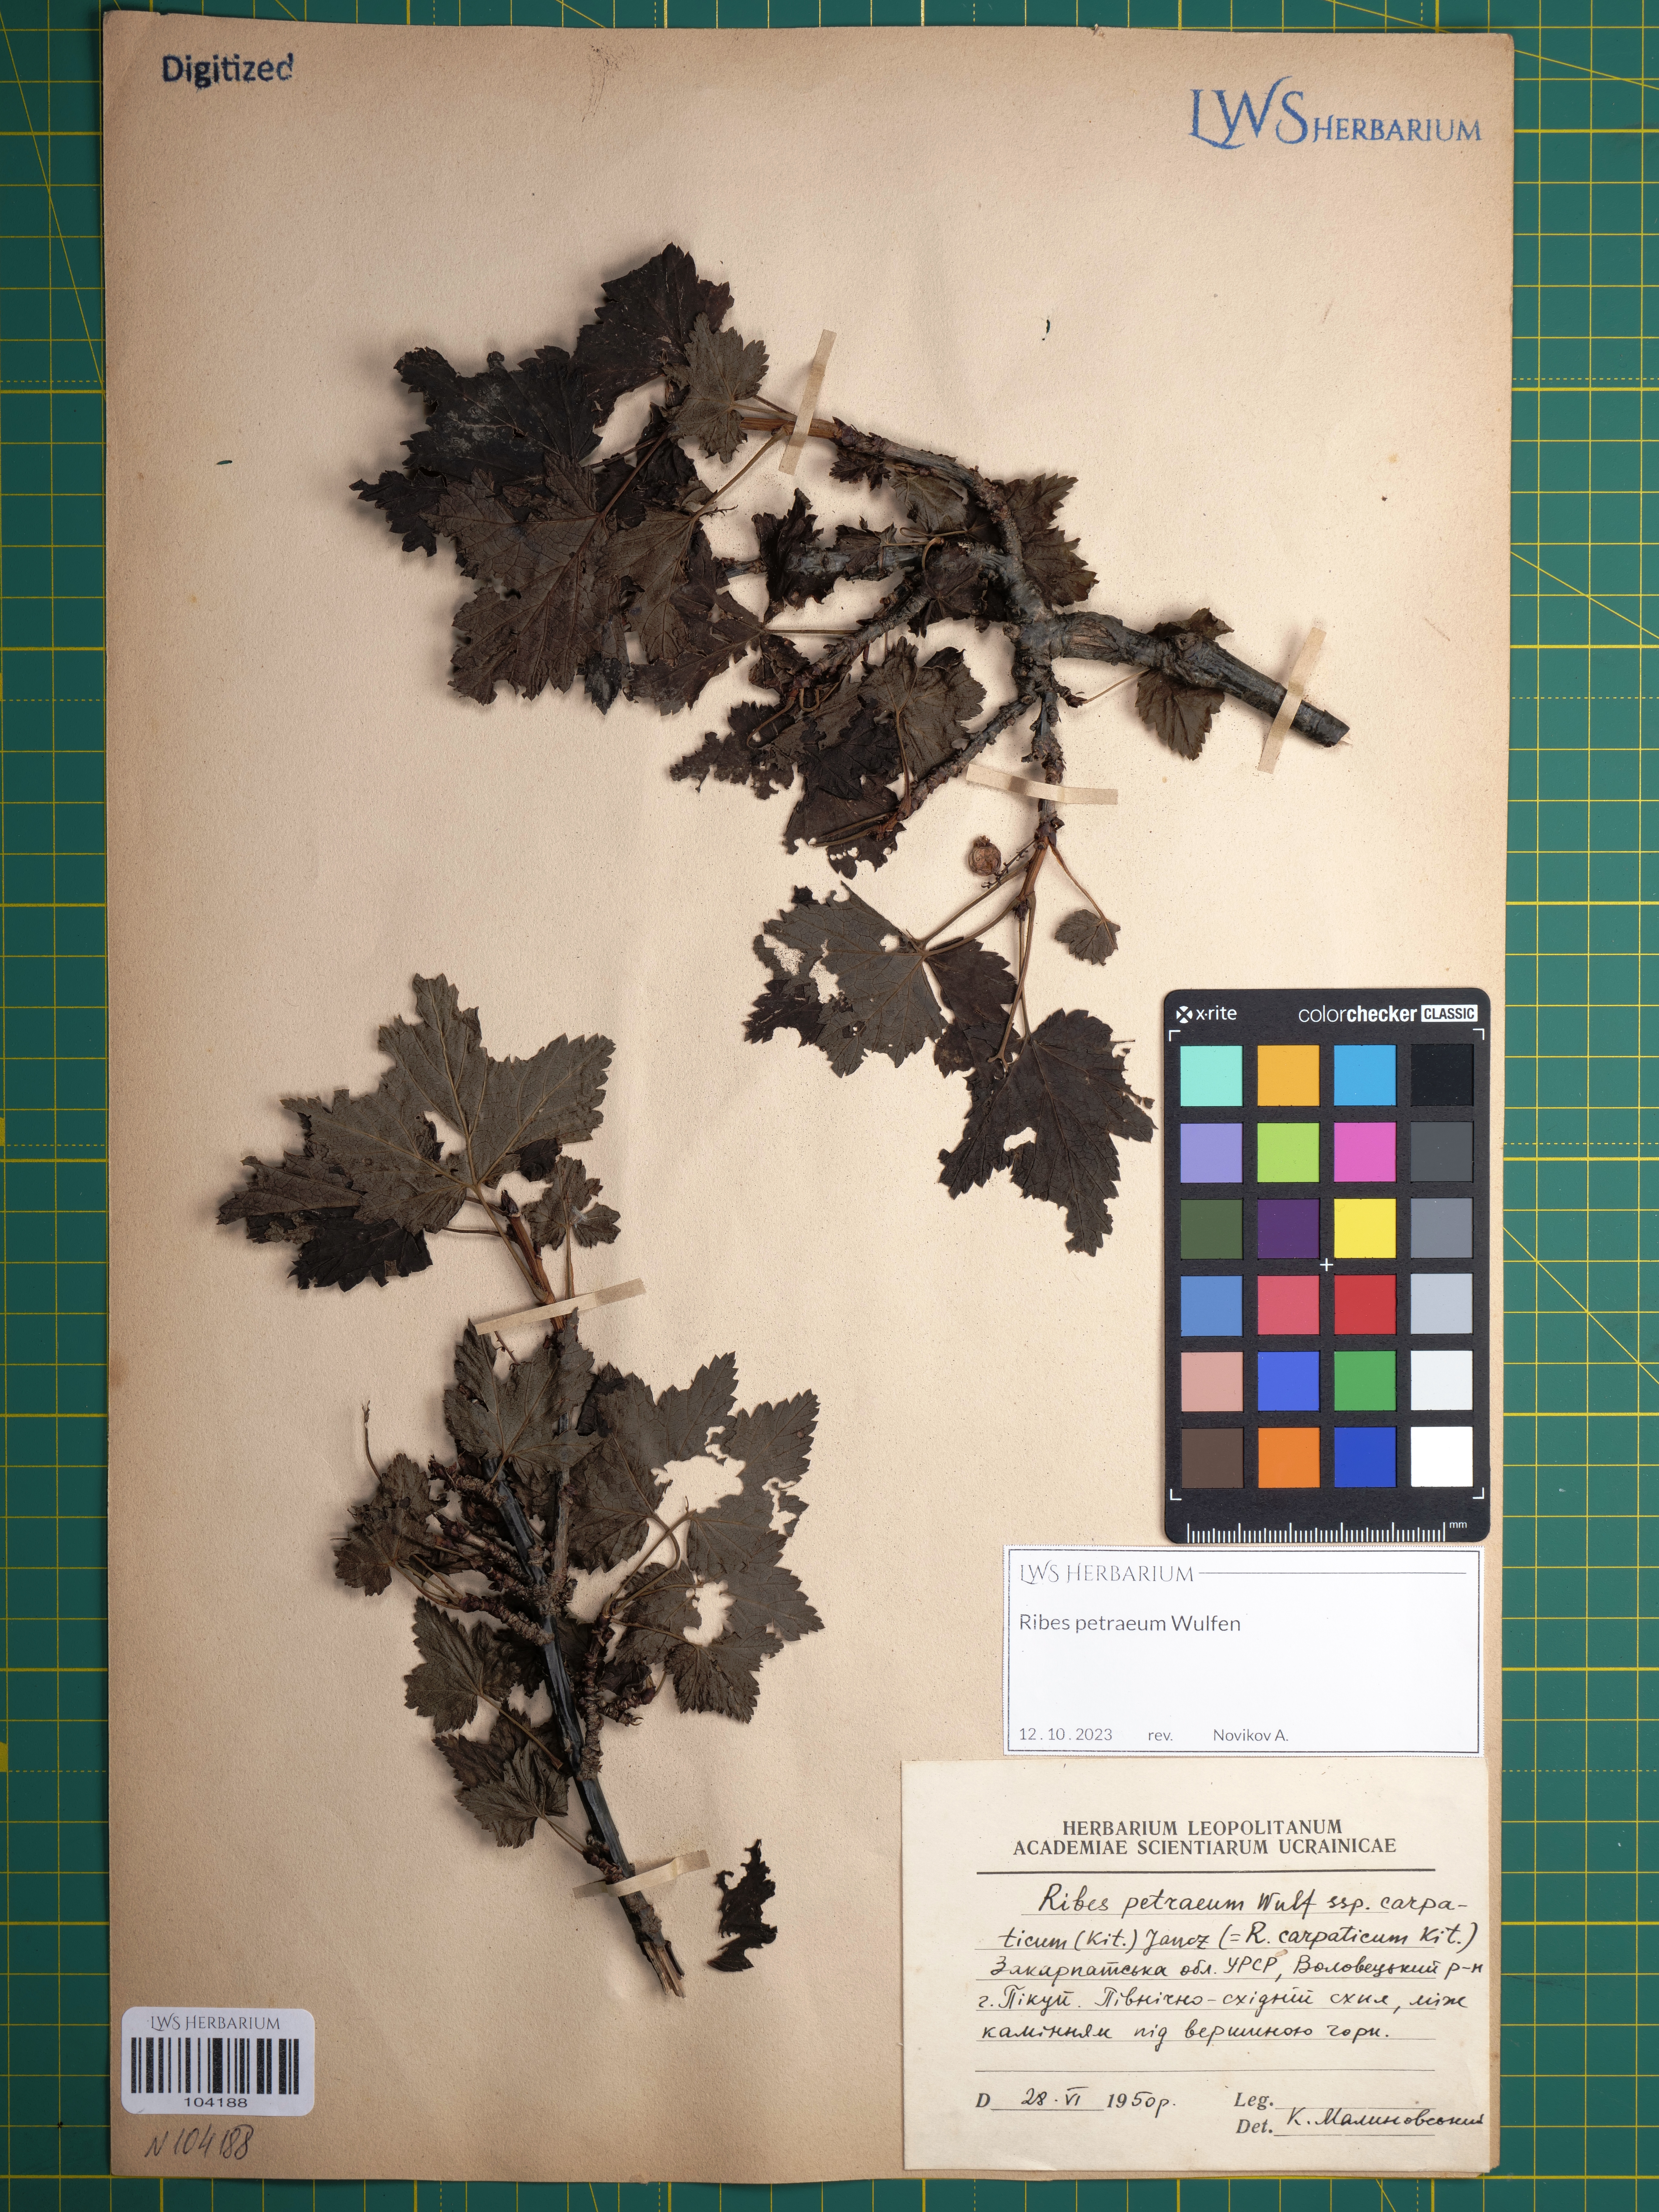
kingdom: Plantae
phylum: Tracheophyta
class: Magnoliopsida
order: Saxifragales
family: Grossulariaceae
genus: Ribes
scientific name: Ribes petraeum
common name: Rock currant
